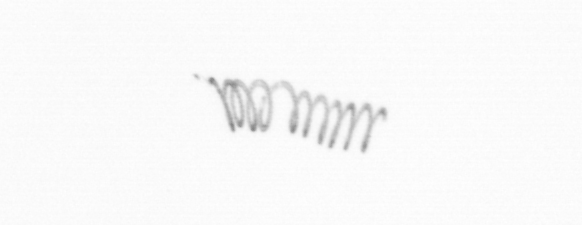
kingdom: Chromista
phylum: Ochrophyta
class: Bacillariophyceae
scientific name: Bacillariophyceae
